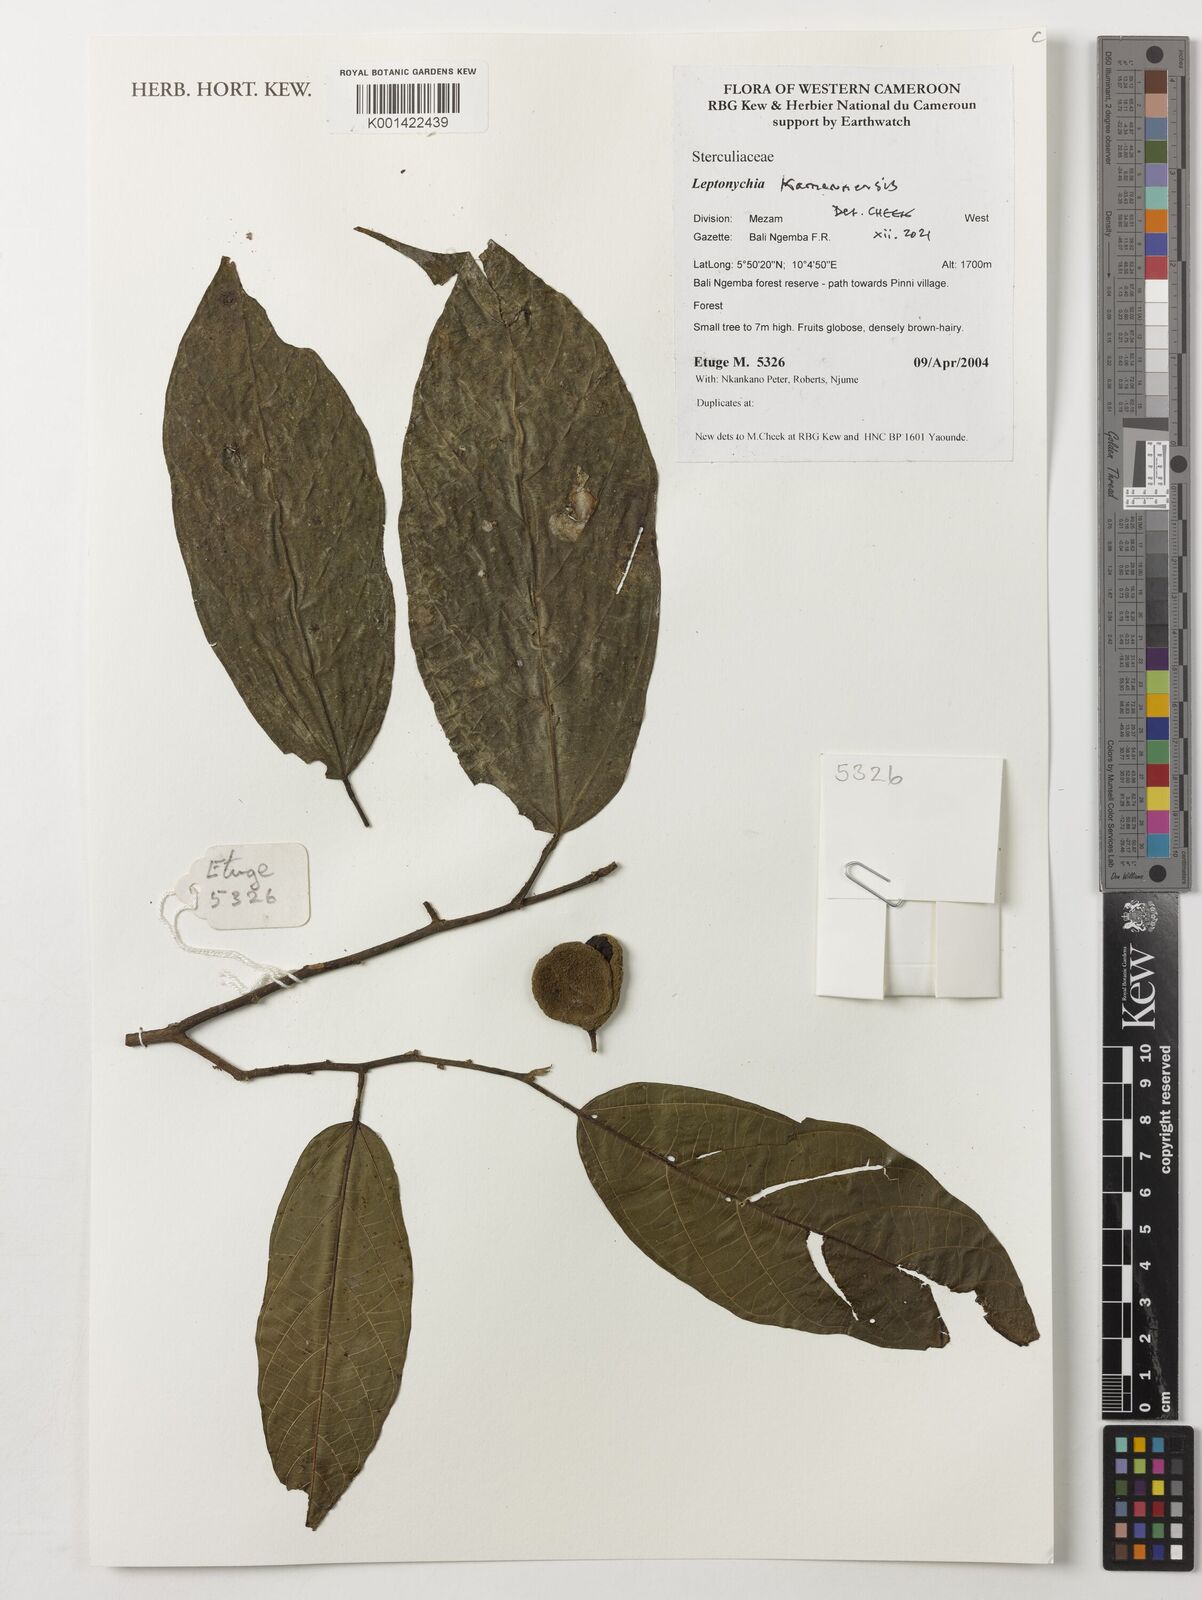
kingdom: Plantae
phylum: Tracheophyta
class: Magnoliopsida
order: Malvales
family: Malvaceae
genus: Leptonychia
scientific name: Leptonychia kamerunensis
